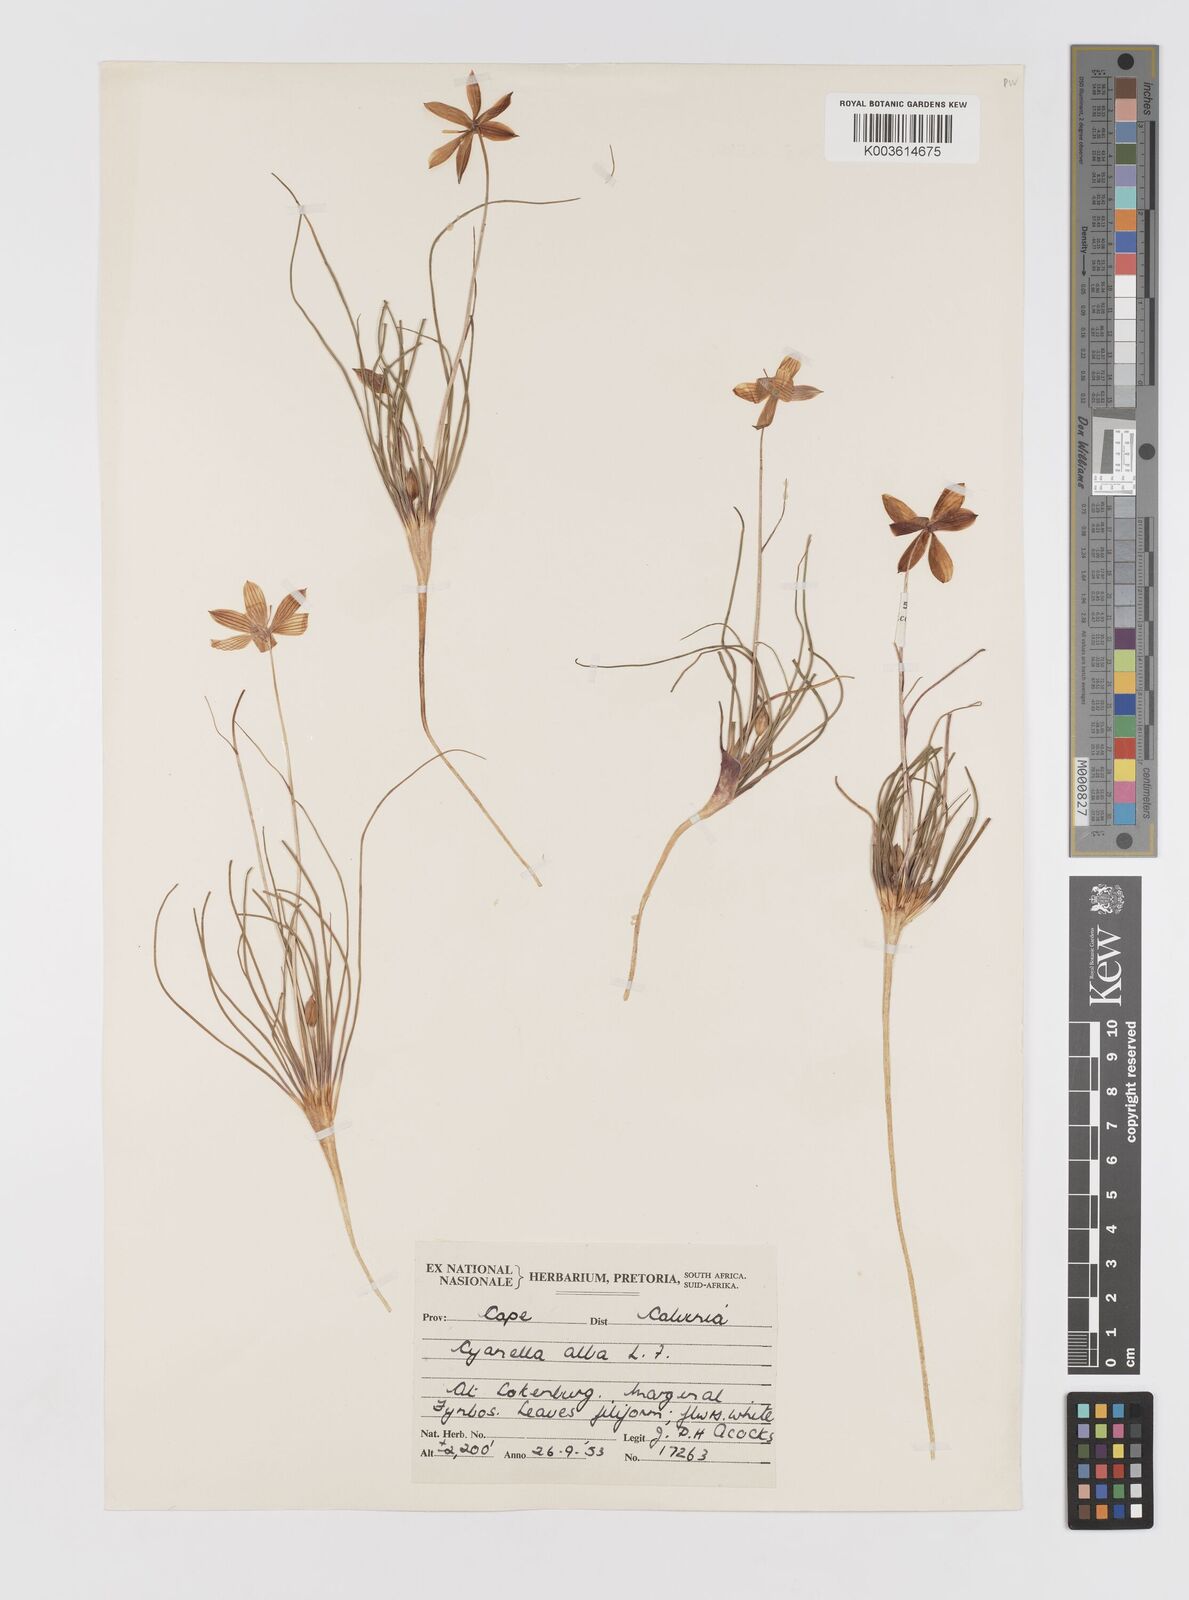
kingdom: Plantae
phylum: Tracheophyta
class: Liliopsida
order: Asparagales
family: Tecophilaeaceae
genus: Cyanella
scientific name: Cyanella alba
